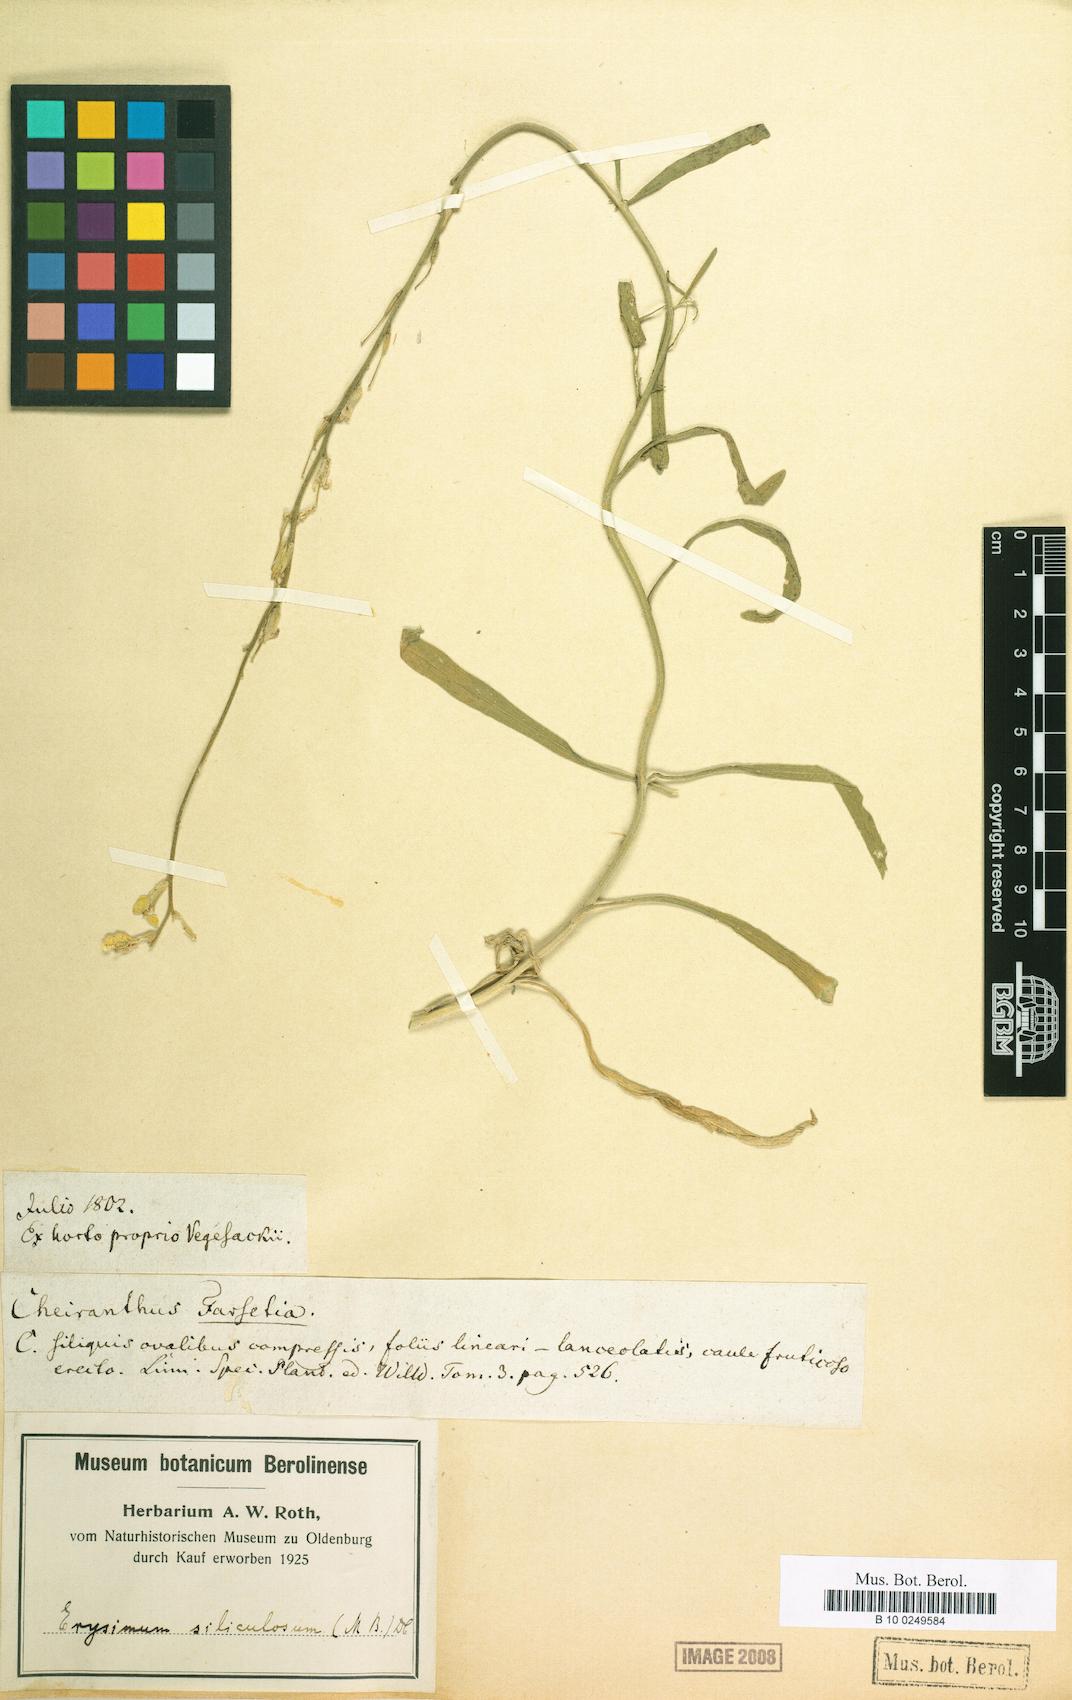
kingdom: Plantae
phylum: Tracheophyta
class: Magnoliopsida
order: Brassicales
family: Brassicaceae
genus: Erysimum
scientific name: Erysimum siliculosum
